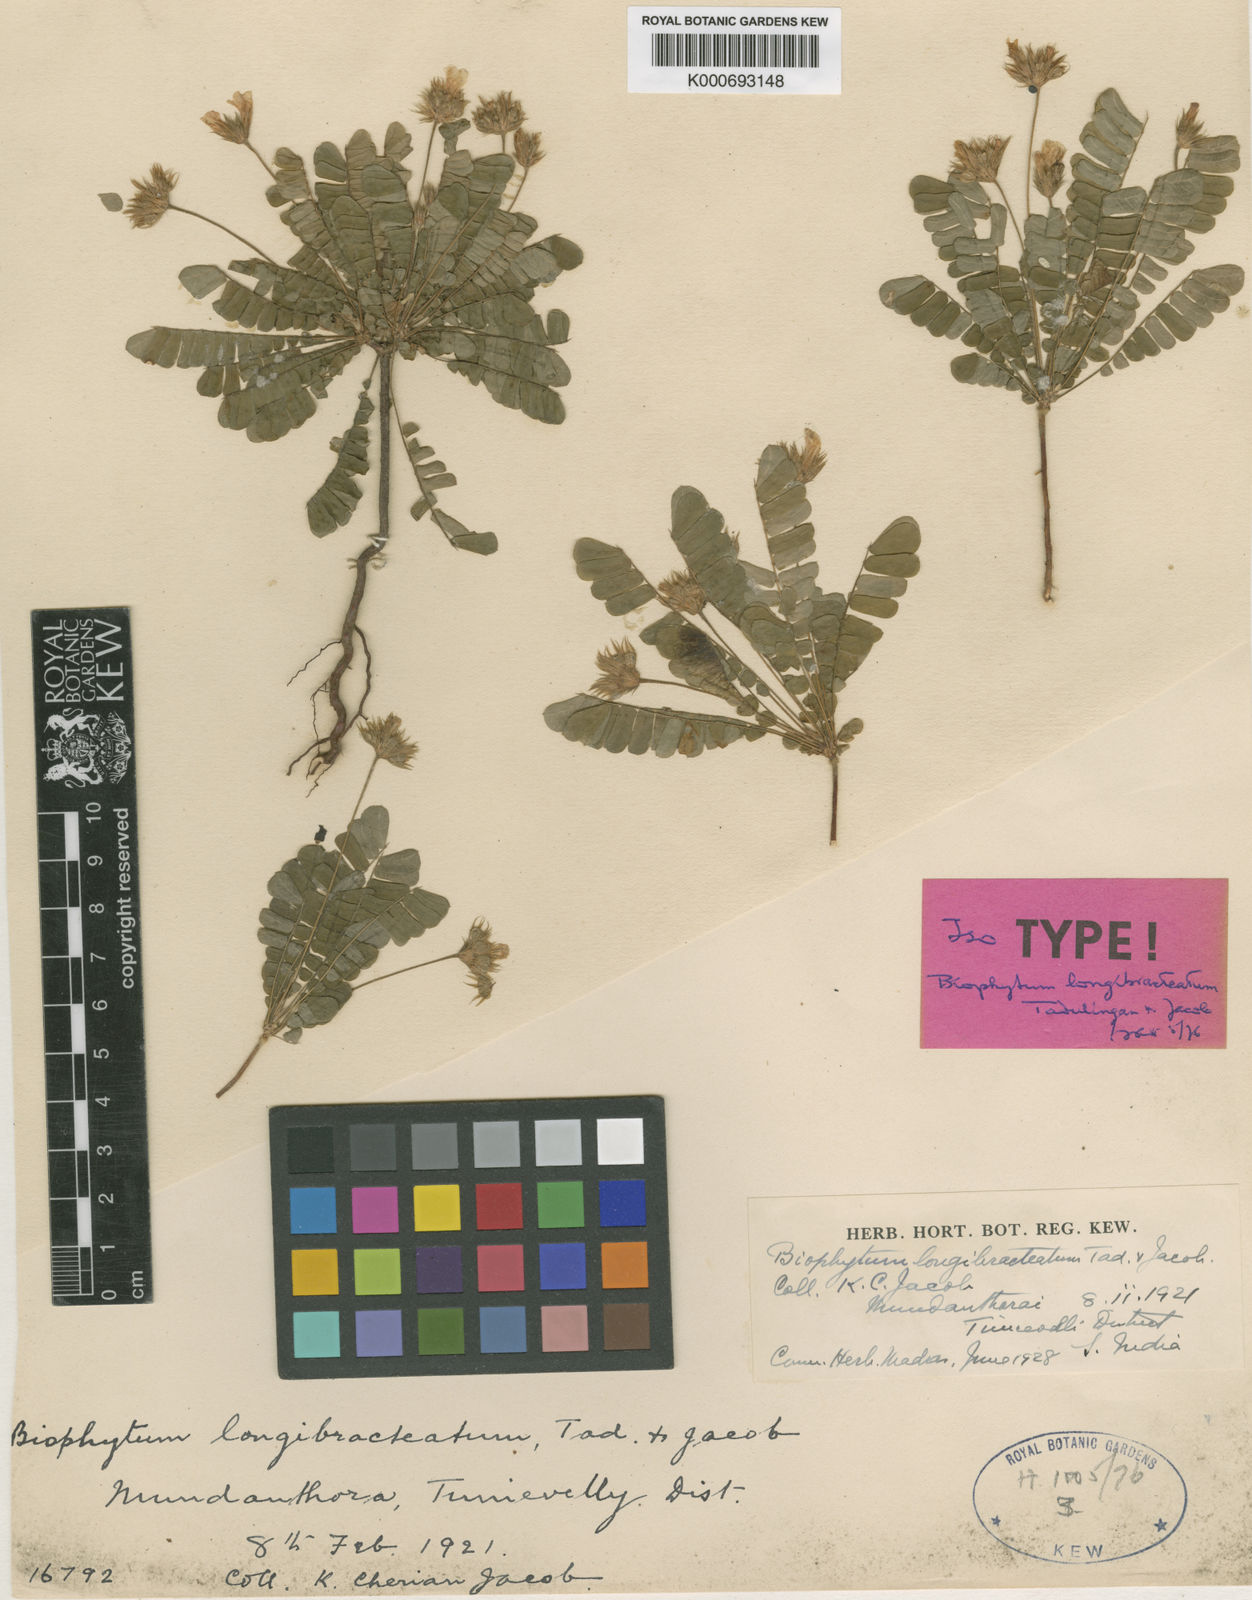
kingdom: Plantae
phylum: Tracheophyta
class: Magnoliopsida
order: Oxalidales
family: Oxalidaceae
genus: Biophytum
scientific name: Biophytum longibracteatum
